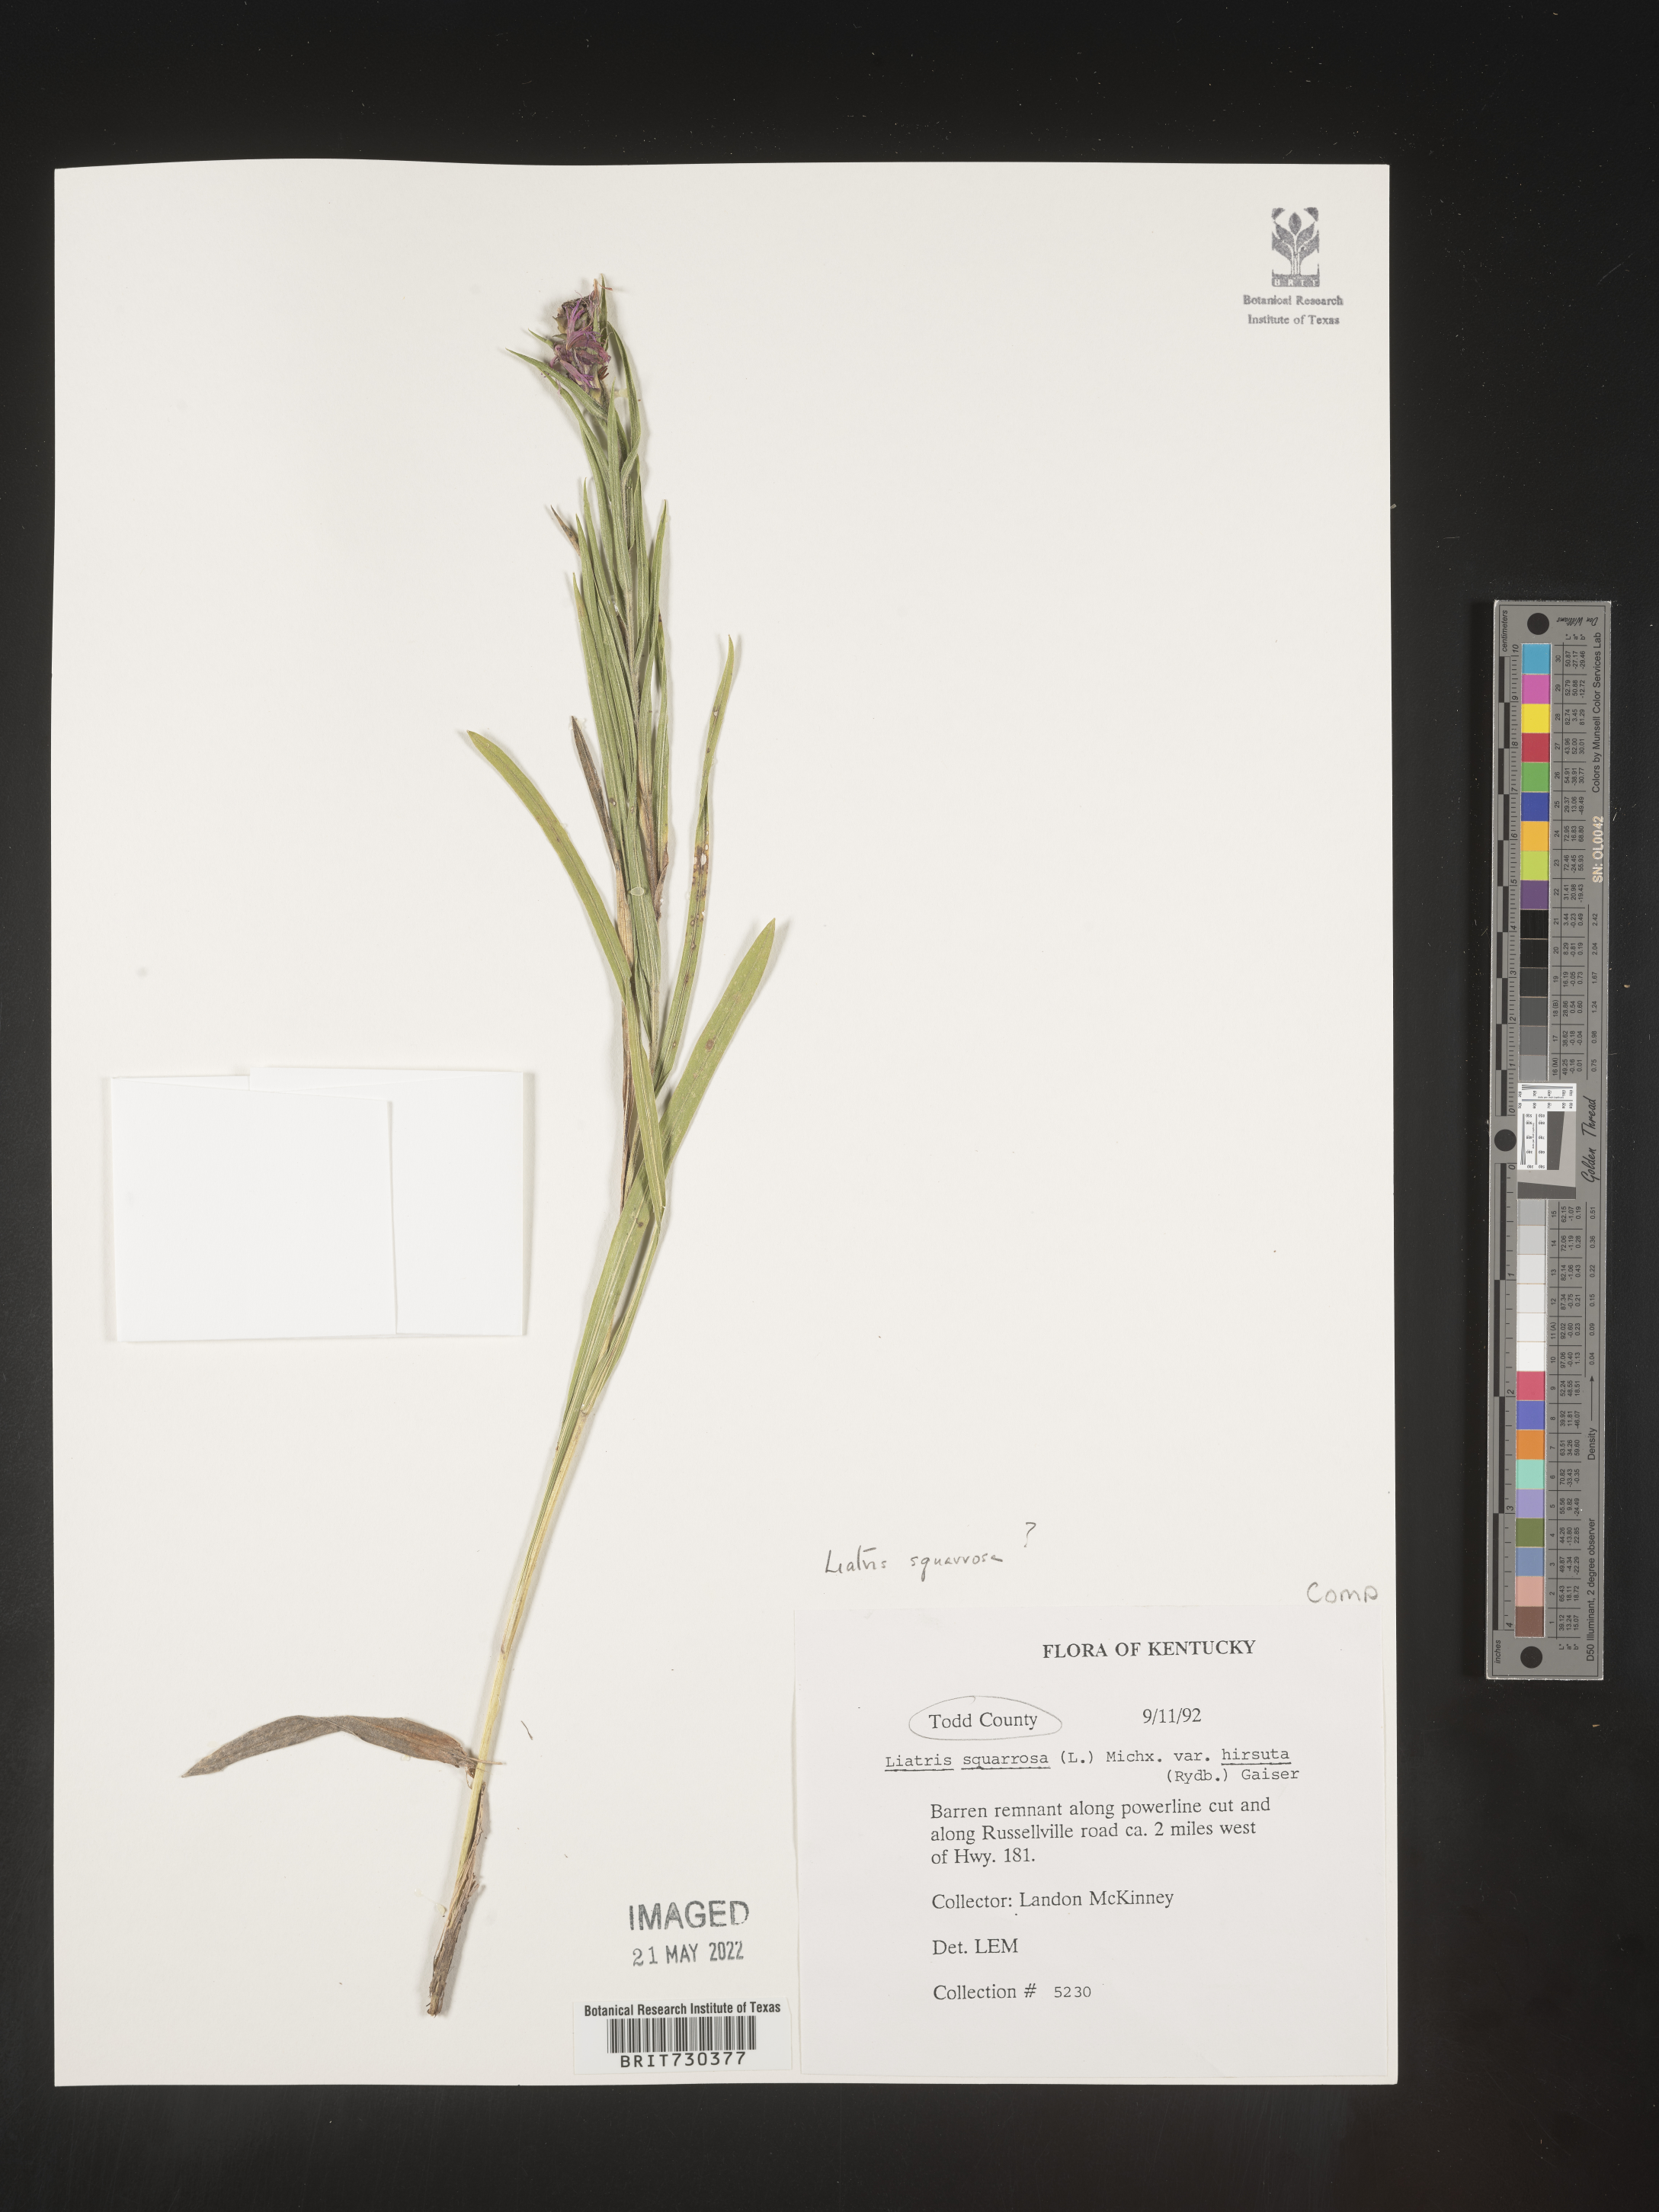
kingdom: Plantae
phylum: Tracheophyta
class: Magnoliopsida
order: Asterales
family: Asteraceae
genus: Liatris
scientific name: Liatris cylindracea
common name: Few-head blazingstar
